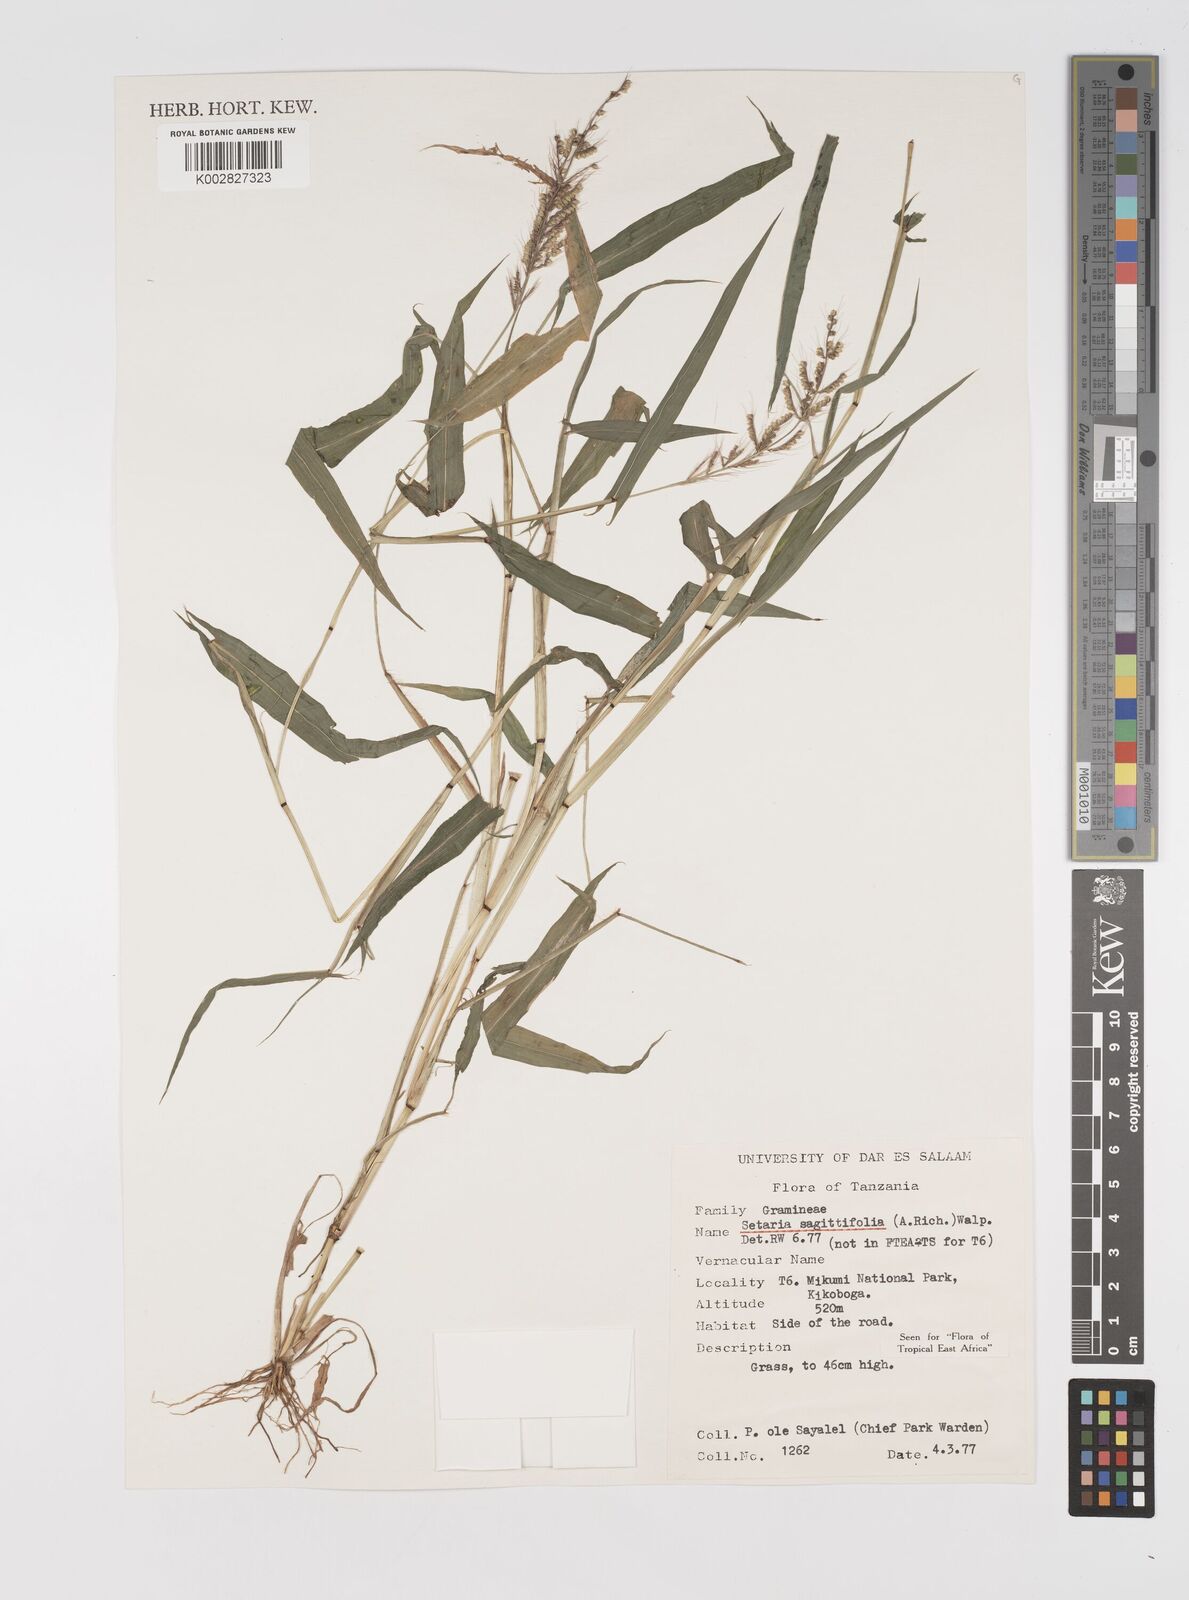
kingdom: Plantae
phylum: Tracheophyta
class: Liliopsida
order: Poales
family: Poaceae
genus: Setaria
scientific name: Setaria sagittifolia
